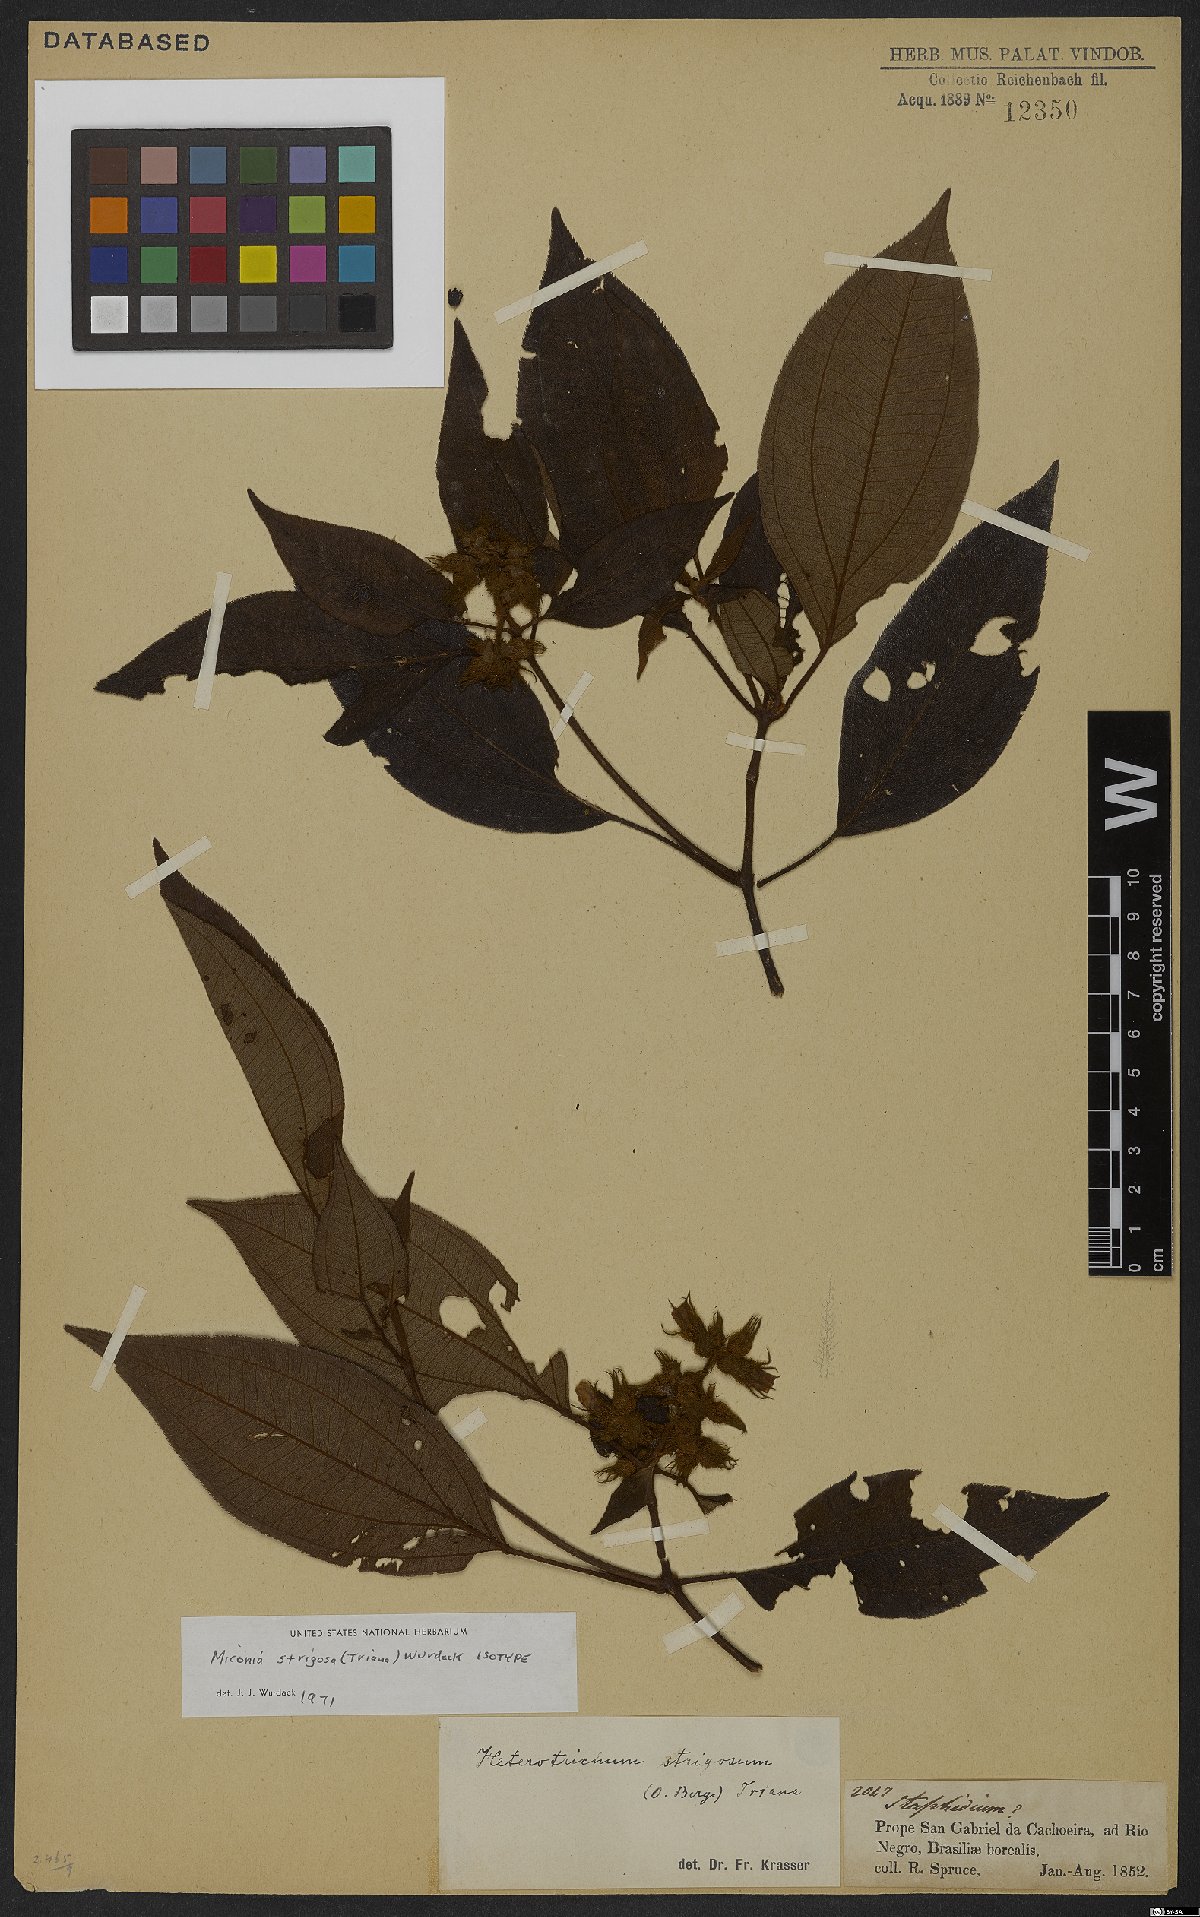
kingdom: Plantae
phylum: Tracheophyta
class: Magnoliopsida
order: Myrtales
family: Melastomataceae
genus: Miconia
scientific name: Miconia strigosa
